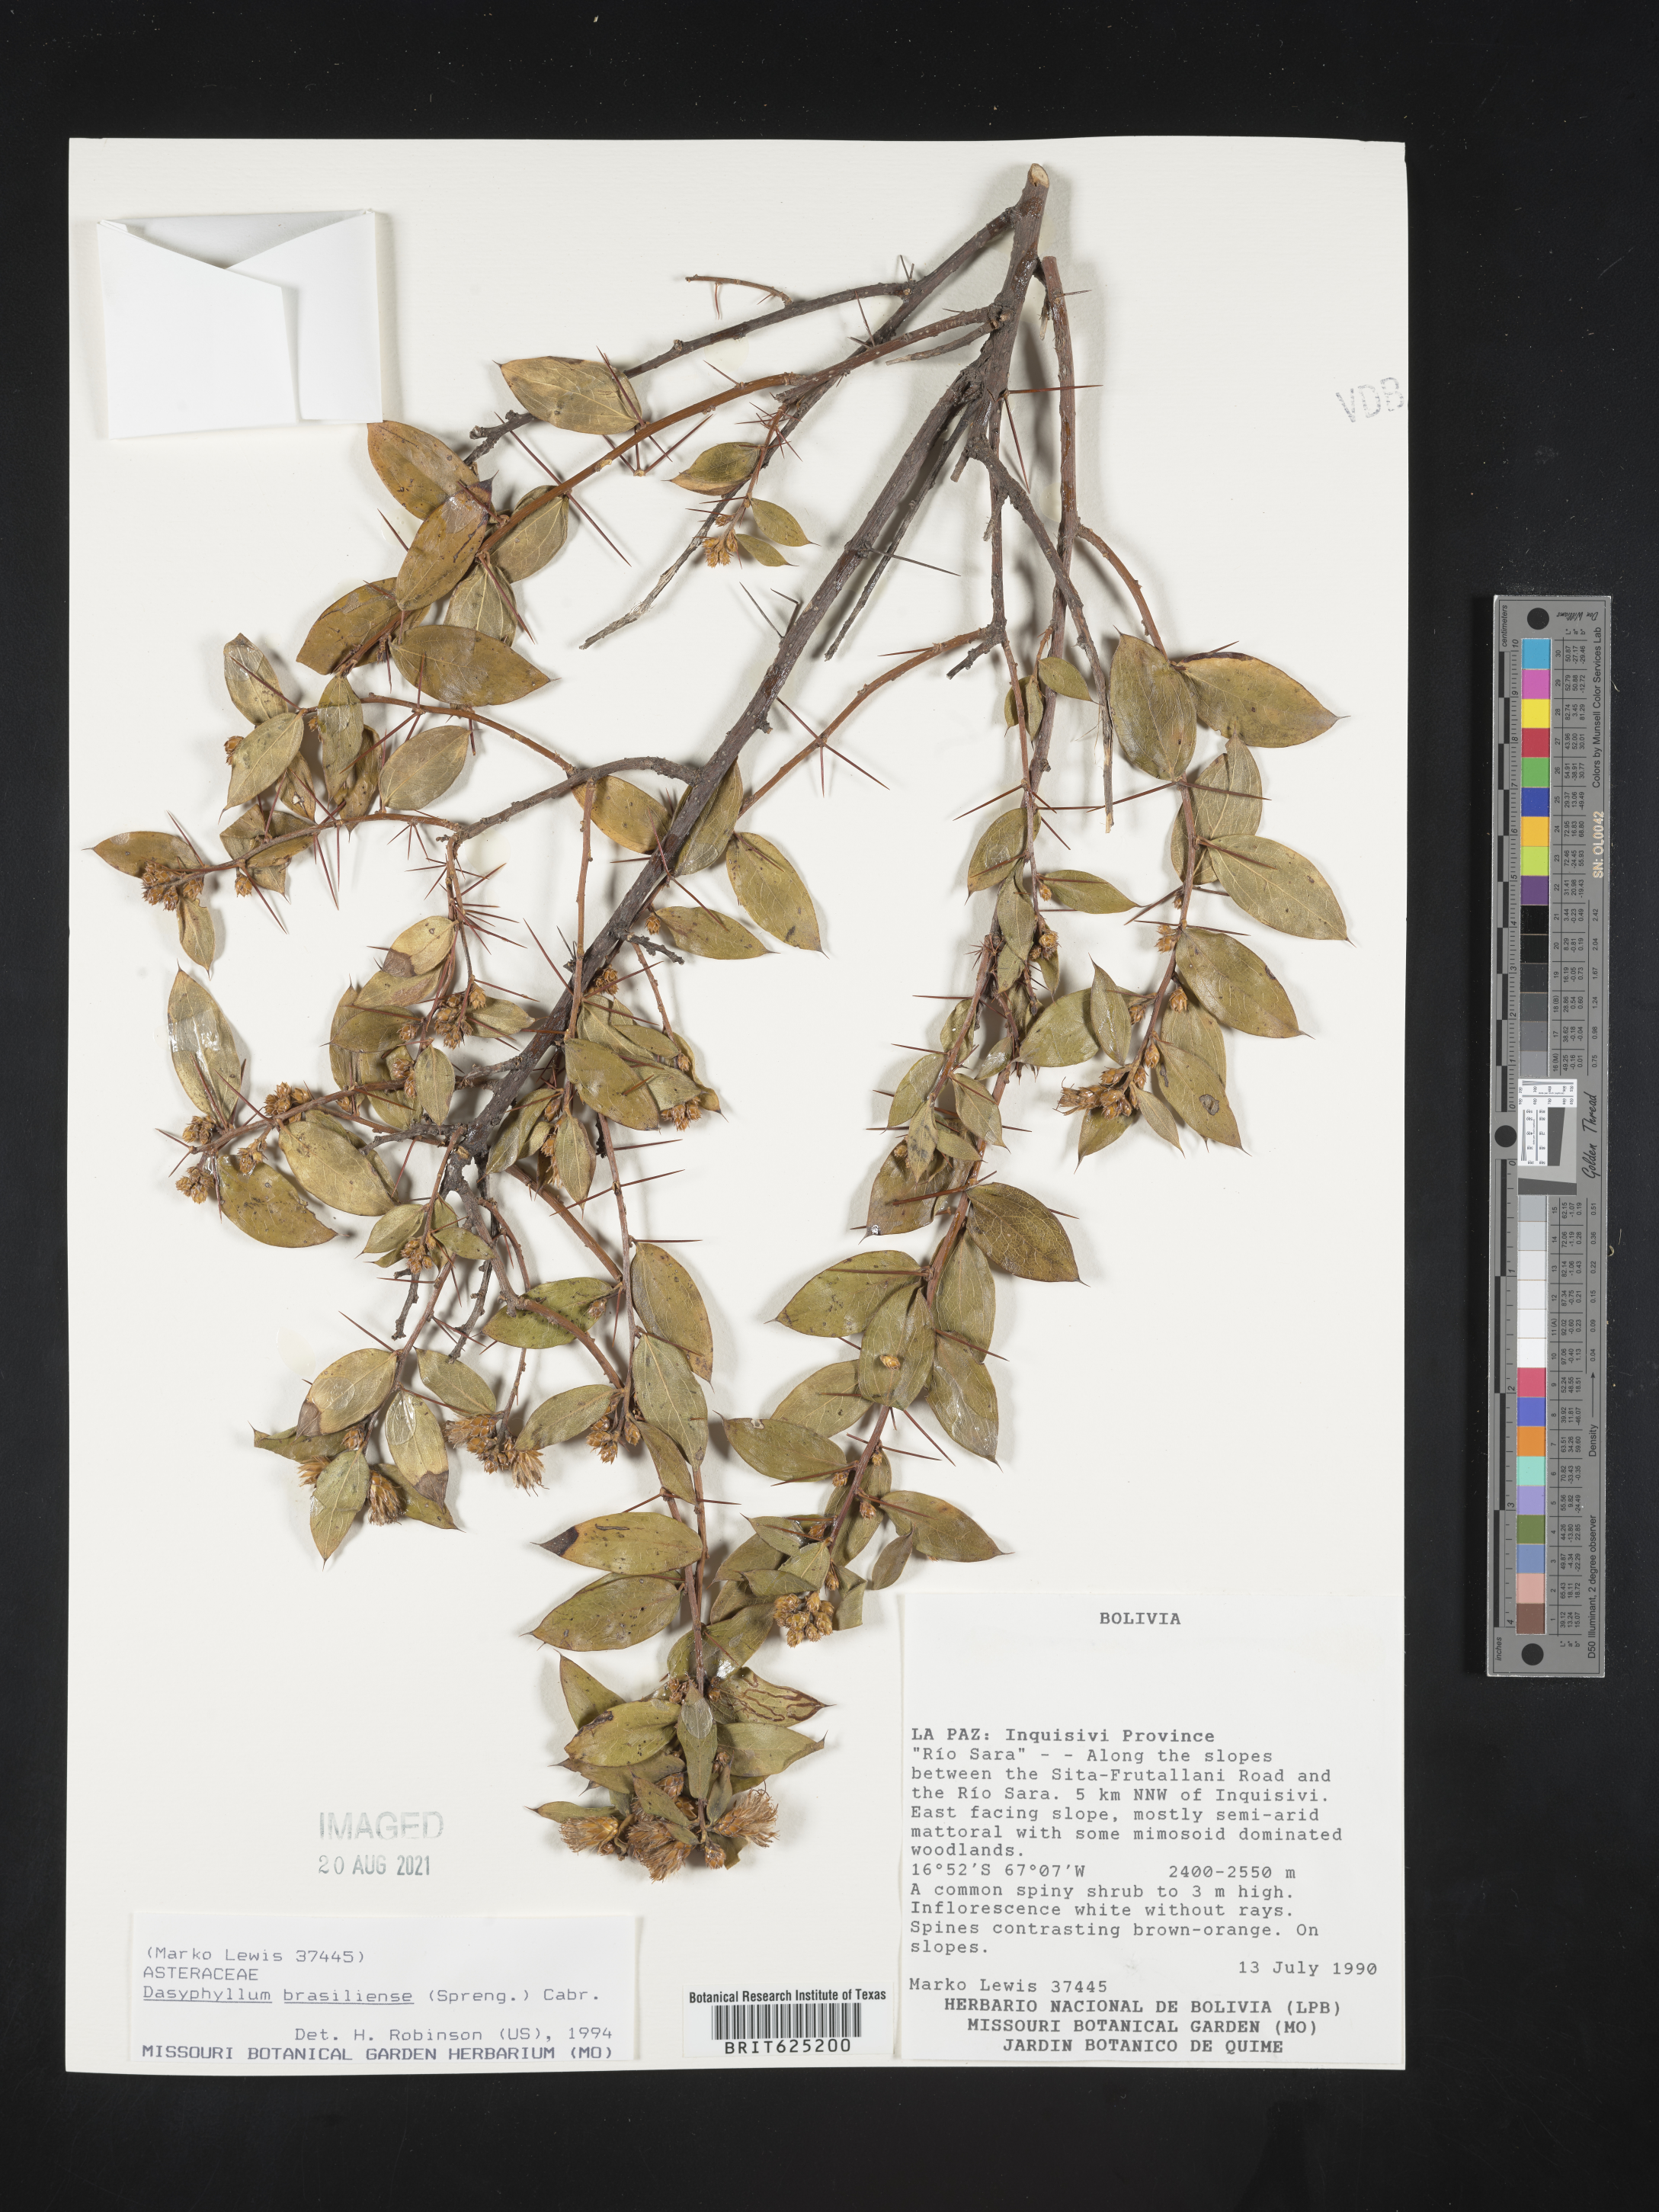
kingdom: Plantae
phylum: Tracheophyta
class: Magnoliopsida
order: Asterales
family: Asteraceae
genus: Dasyphyllum
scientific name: Dasyphyllum brasiliense
